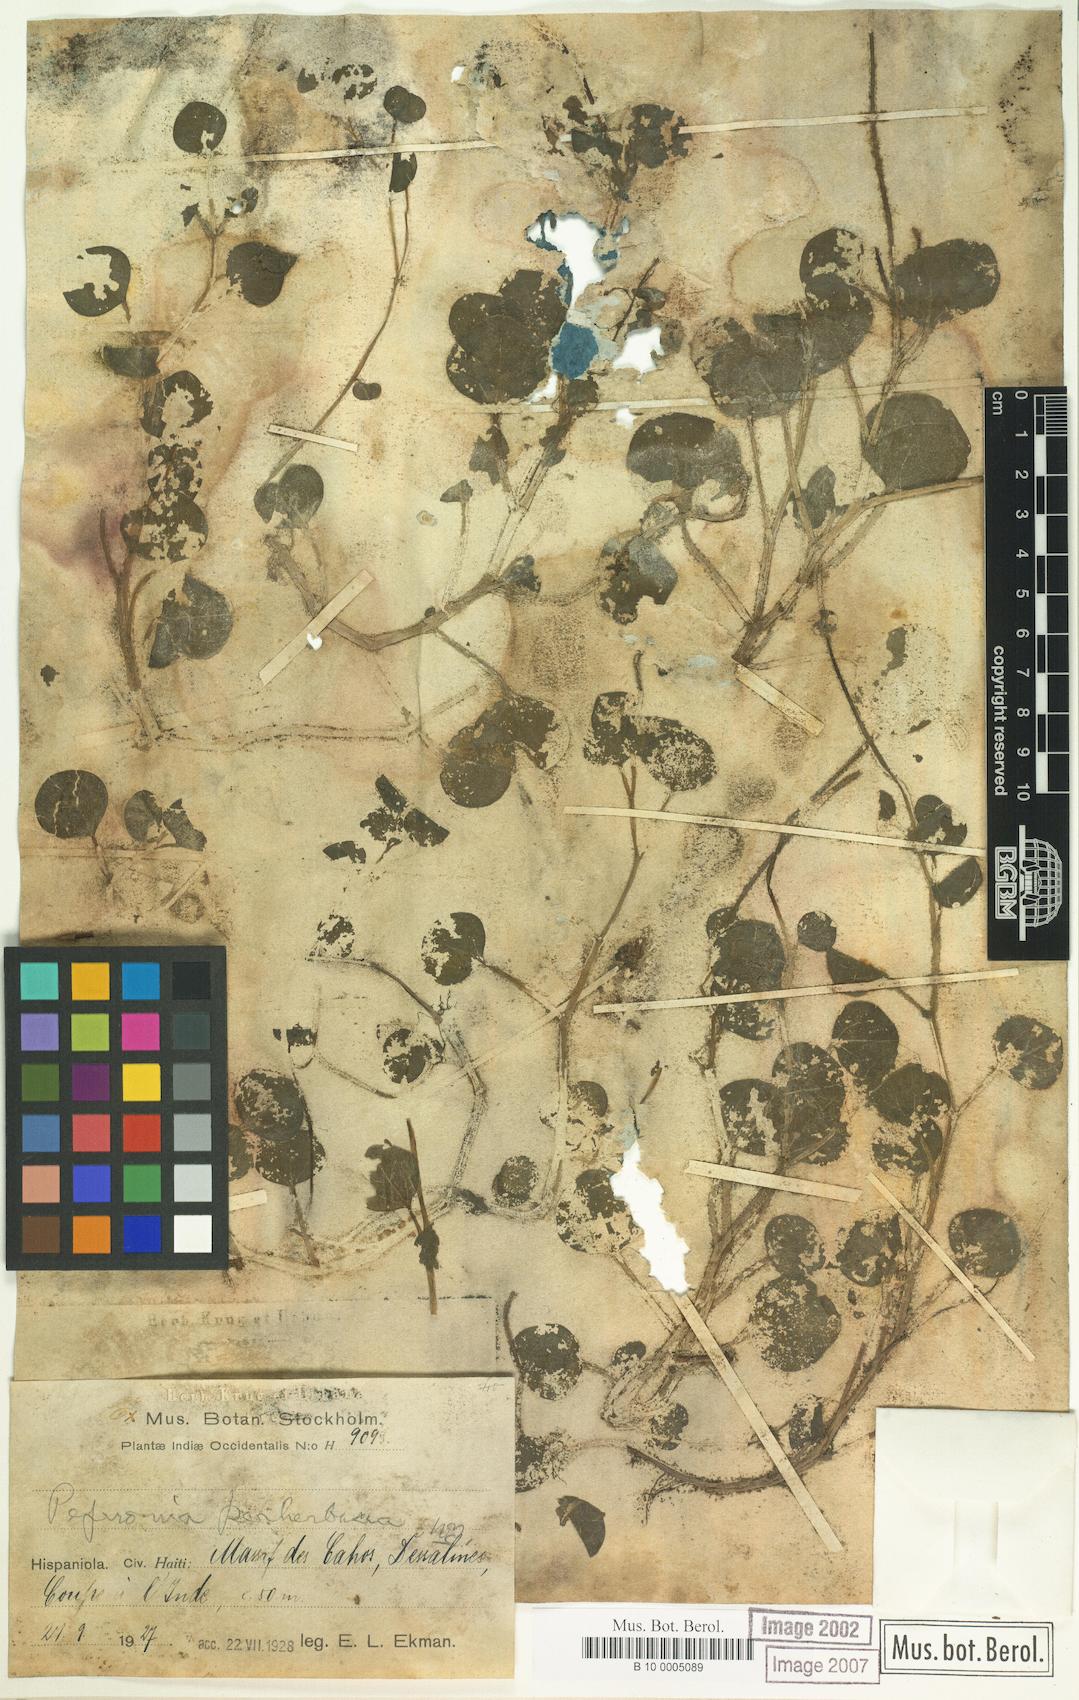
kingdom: Plantae
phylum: Tracheophyta
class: Magnoliopsida
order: Piperales
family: Piperaceae
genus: Peperomia
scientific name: Peperomia perherbacea
